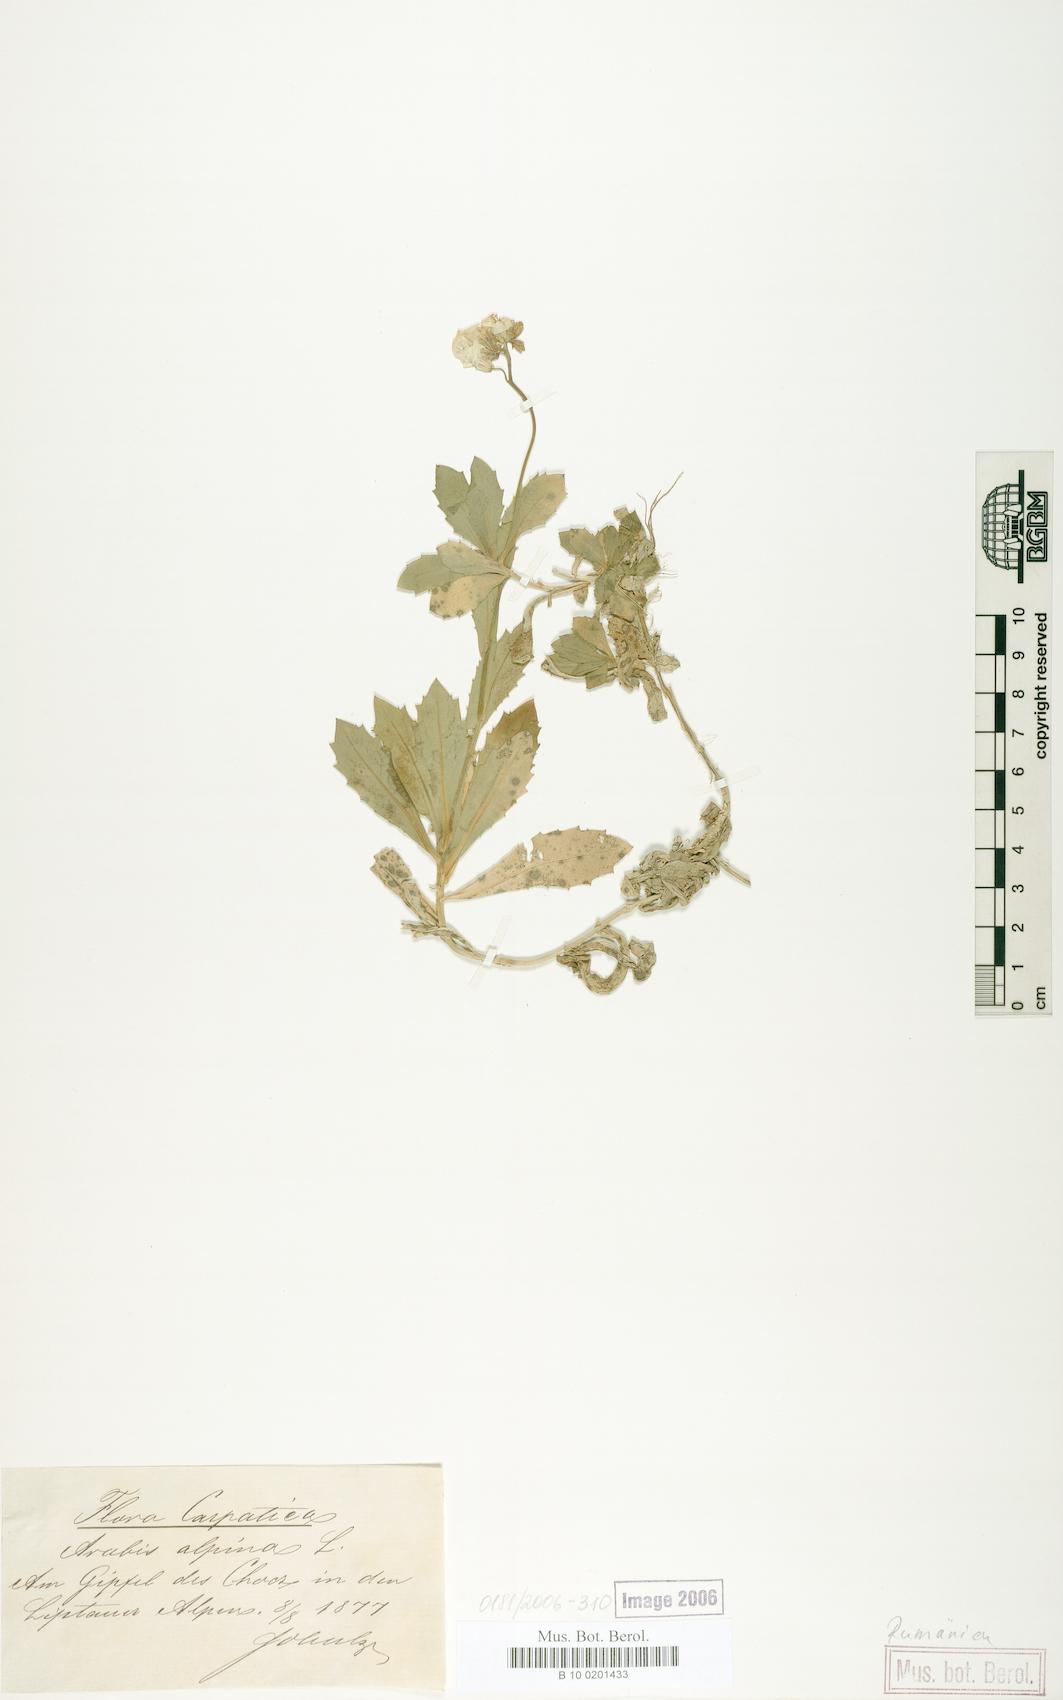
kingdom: Plantae
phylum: Tracheophyta
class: Magnoliopsida
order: Brassicales
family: Brassicaceae
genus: Arabis
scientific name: Arabis alpina
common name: Alpine rock-cress
